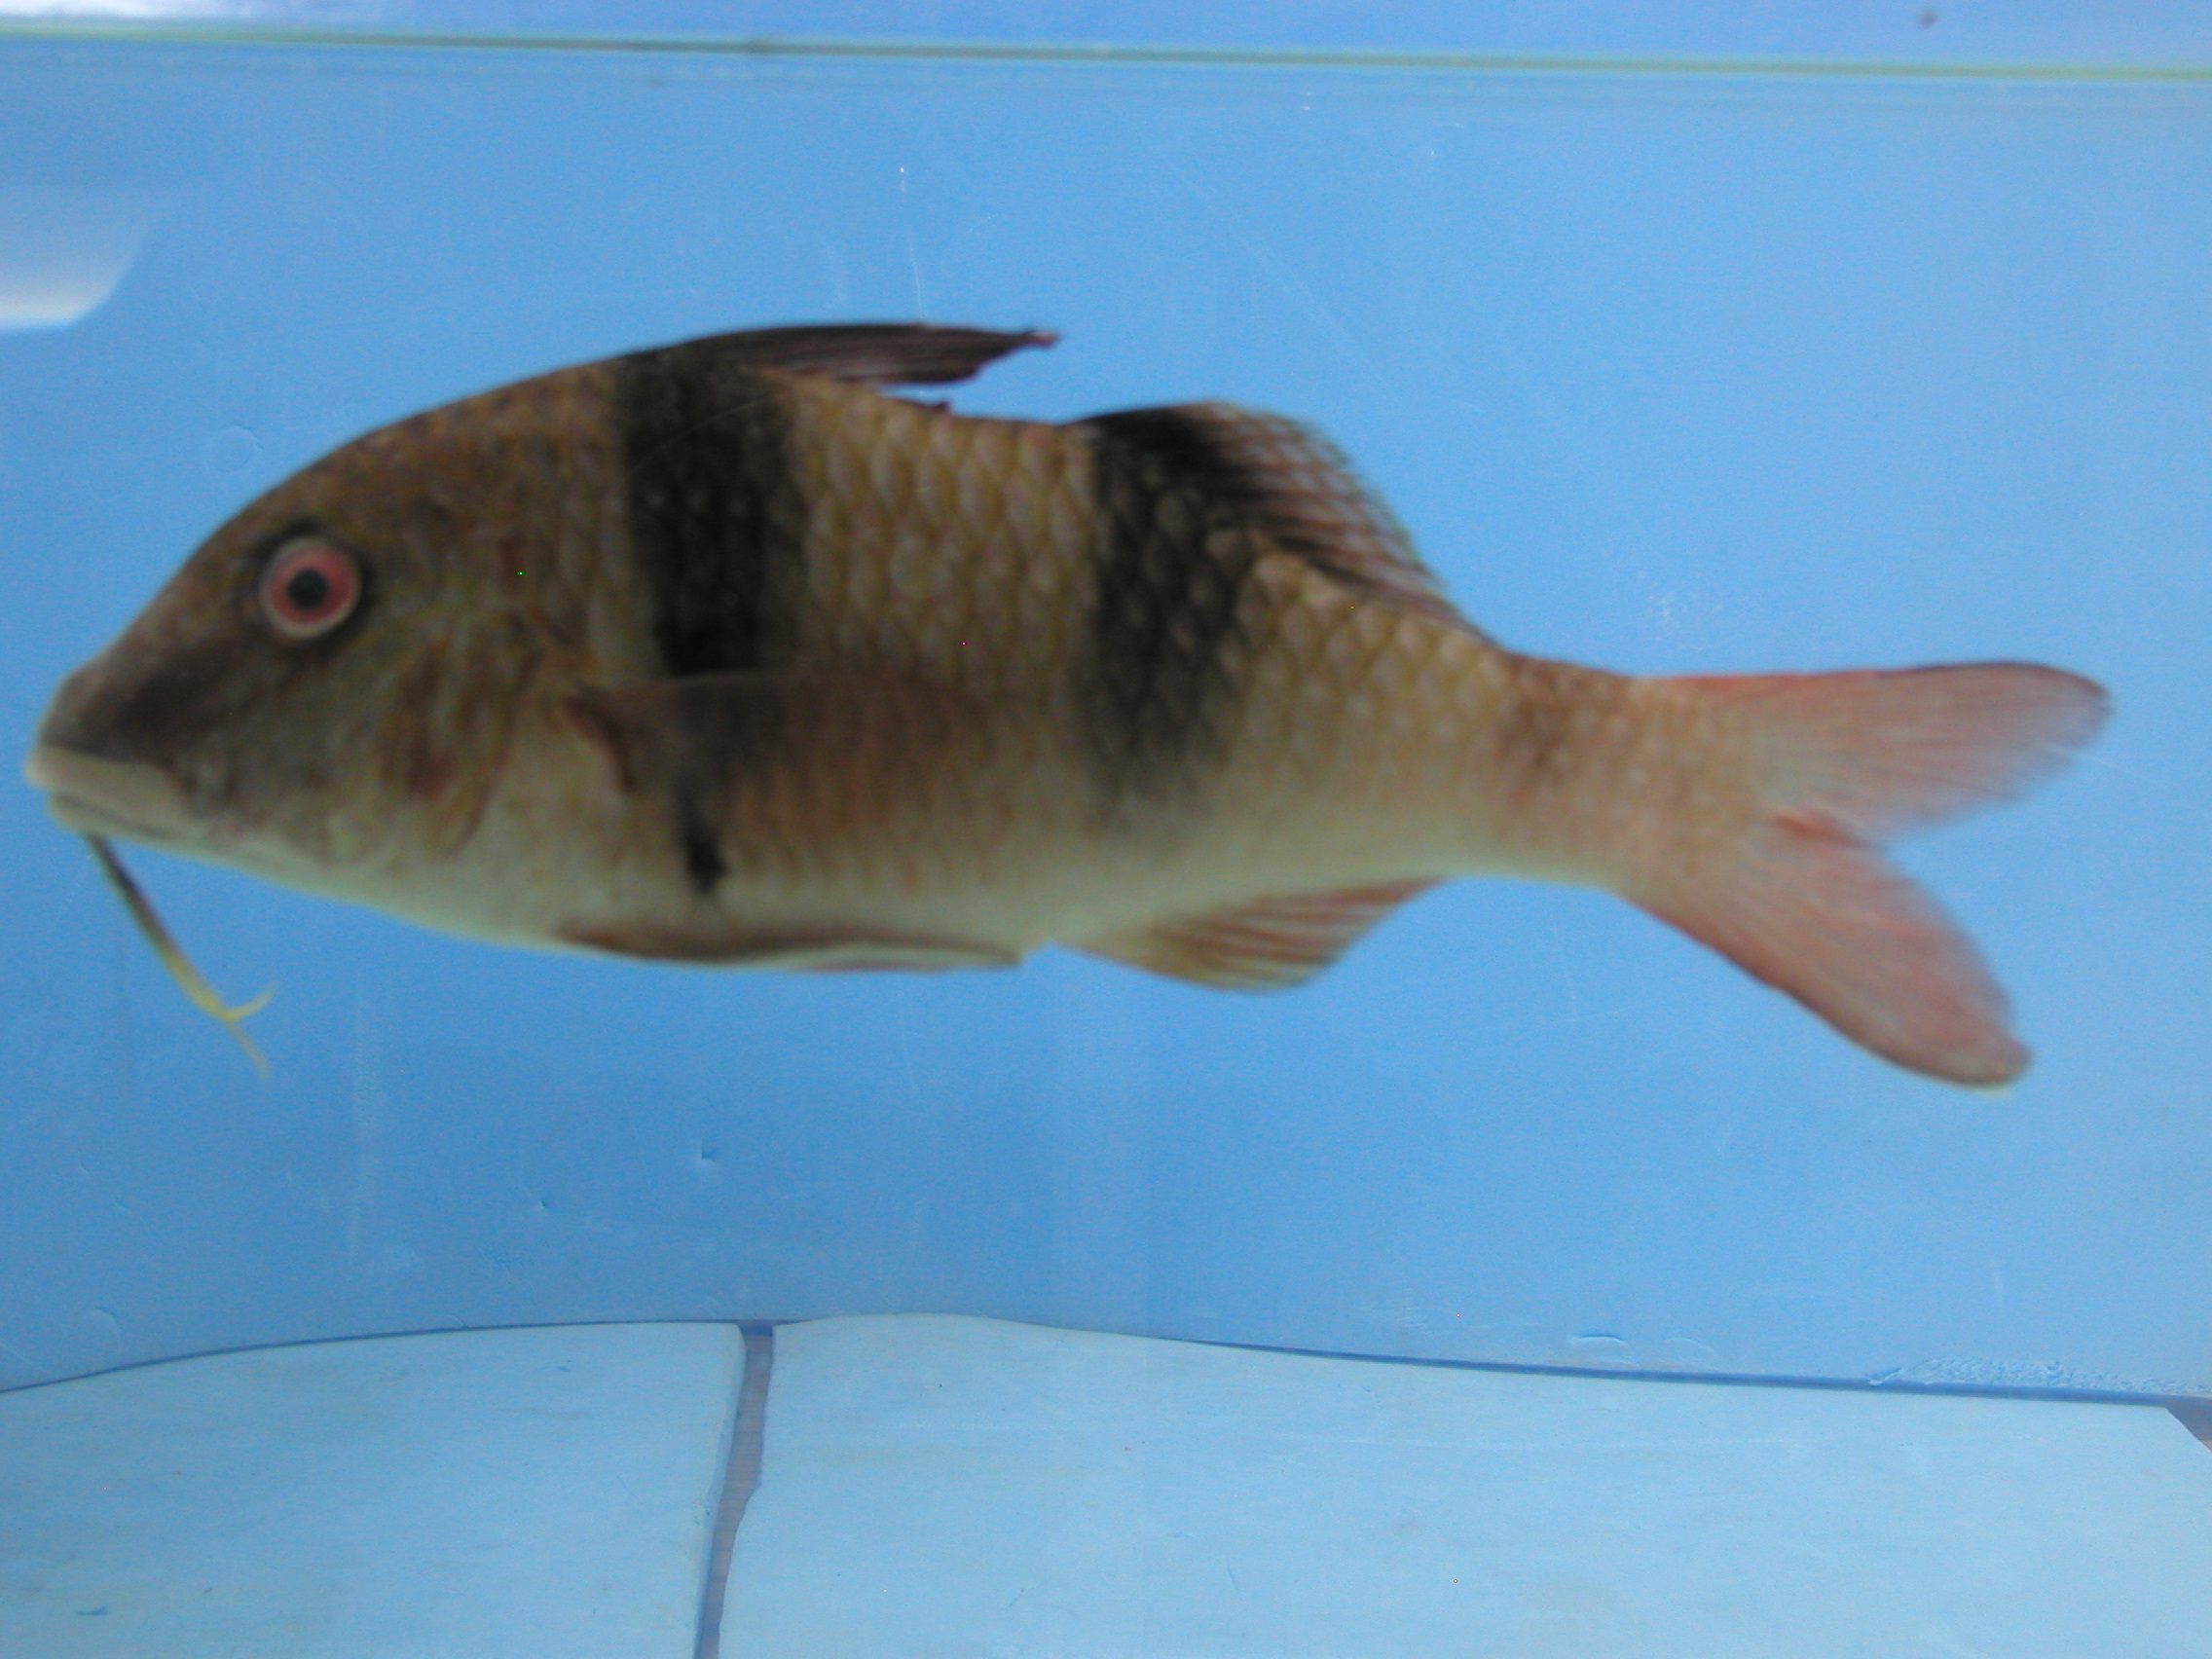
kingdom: Animalia
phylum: Chordata
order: Perciformes
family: Mullidae
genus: Parupeneus
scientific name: Parupeneus trifasciatus
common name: Doublebar goatfish
